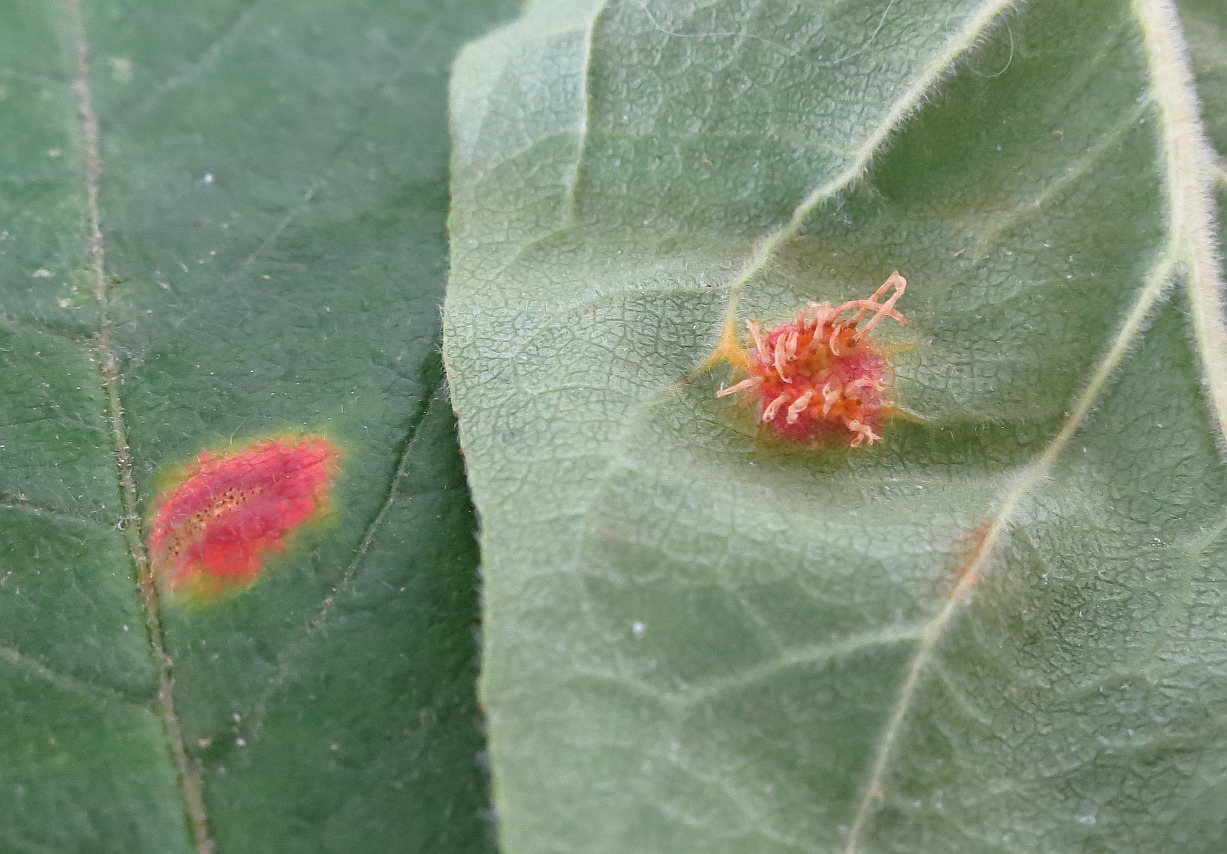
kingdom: Fungi
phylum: Basidiomycota
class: Pucciniomycetes
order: Pucciniales
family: Gymnosporangiaceae
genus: Gymnosporangium
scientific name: Gymnosporangium
